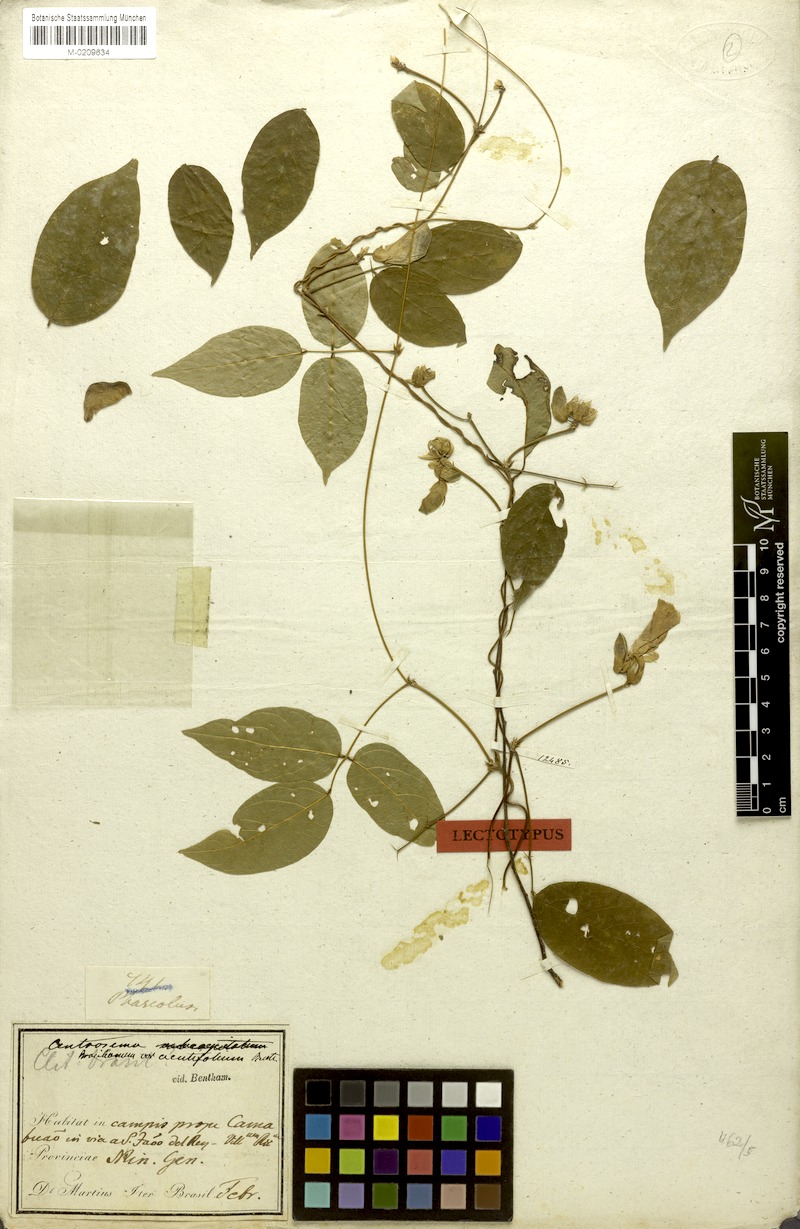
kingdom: Plantae
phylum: Tracheophyta
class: Magnoliopsida
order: Fabales
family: Fabaceae
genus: Centrosema
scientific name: Centrosema brasilianum
